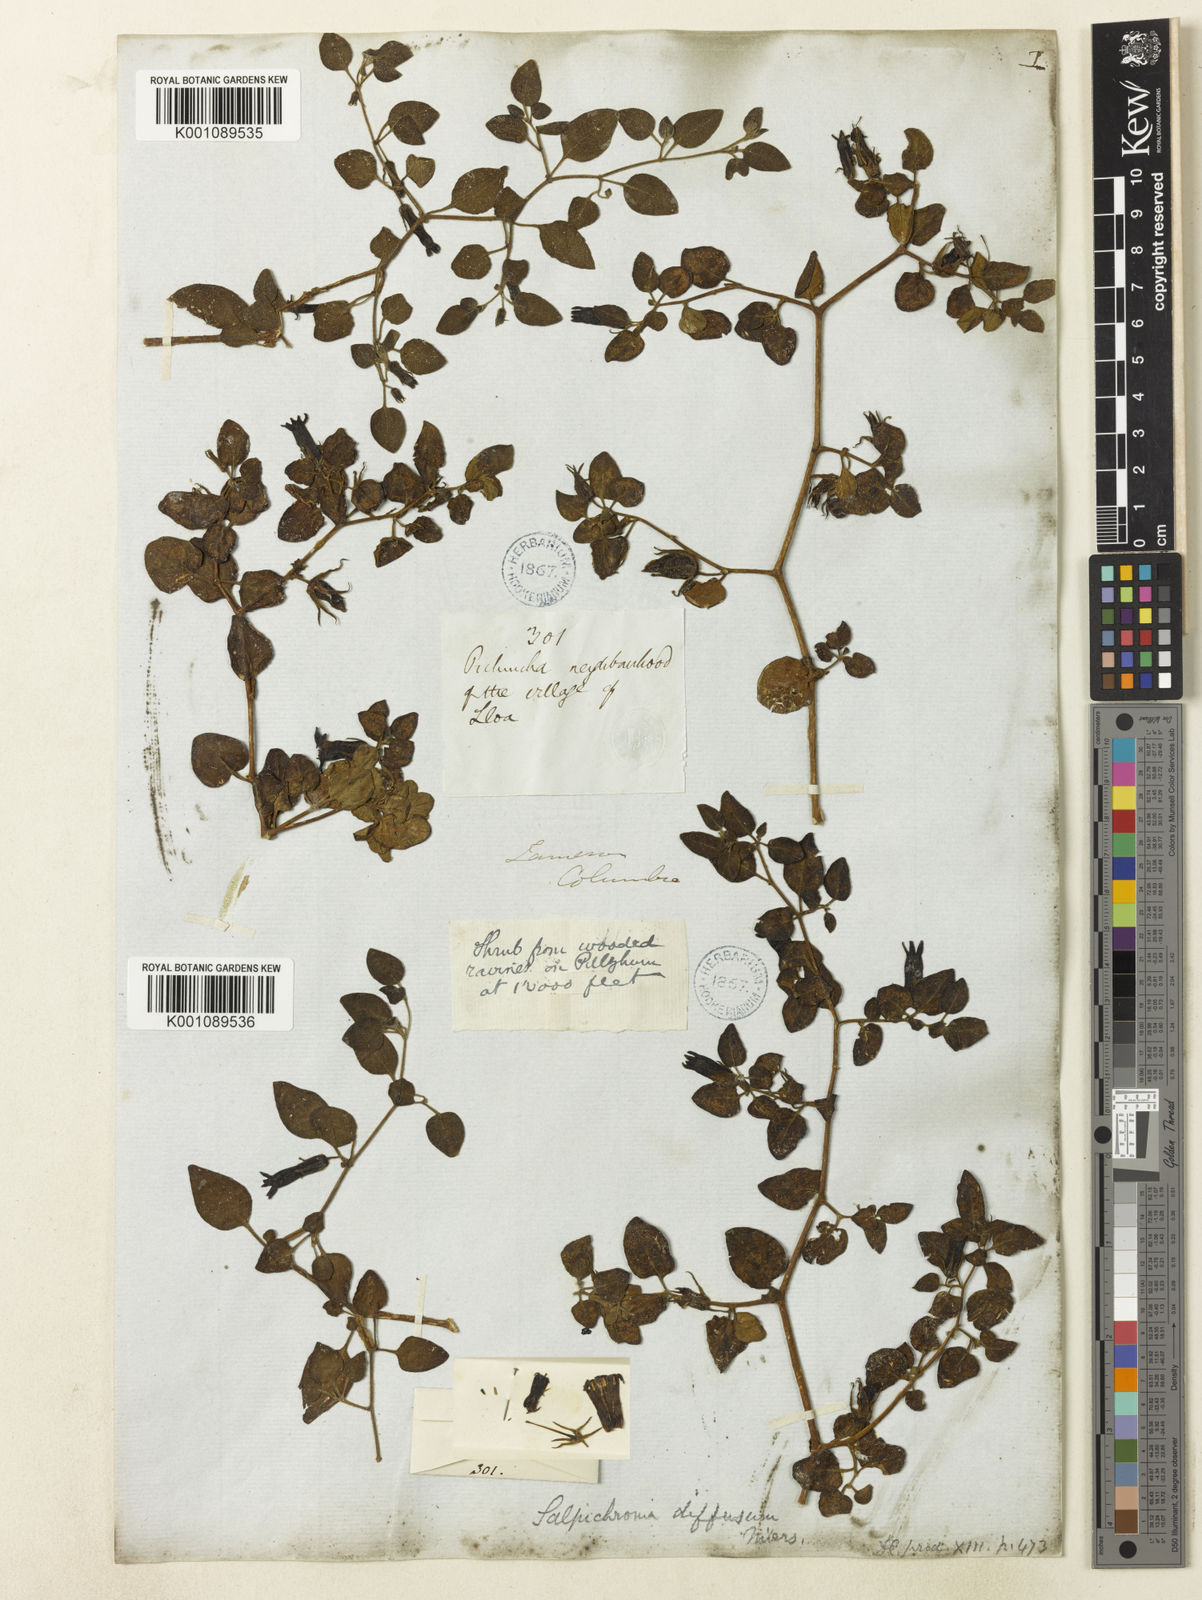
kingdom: Plantae
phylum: Tracheophyta
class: Magnoliopsida
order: Solanales
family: Solanaceae
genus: Salpichroa
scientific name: Salpichroa
